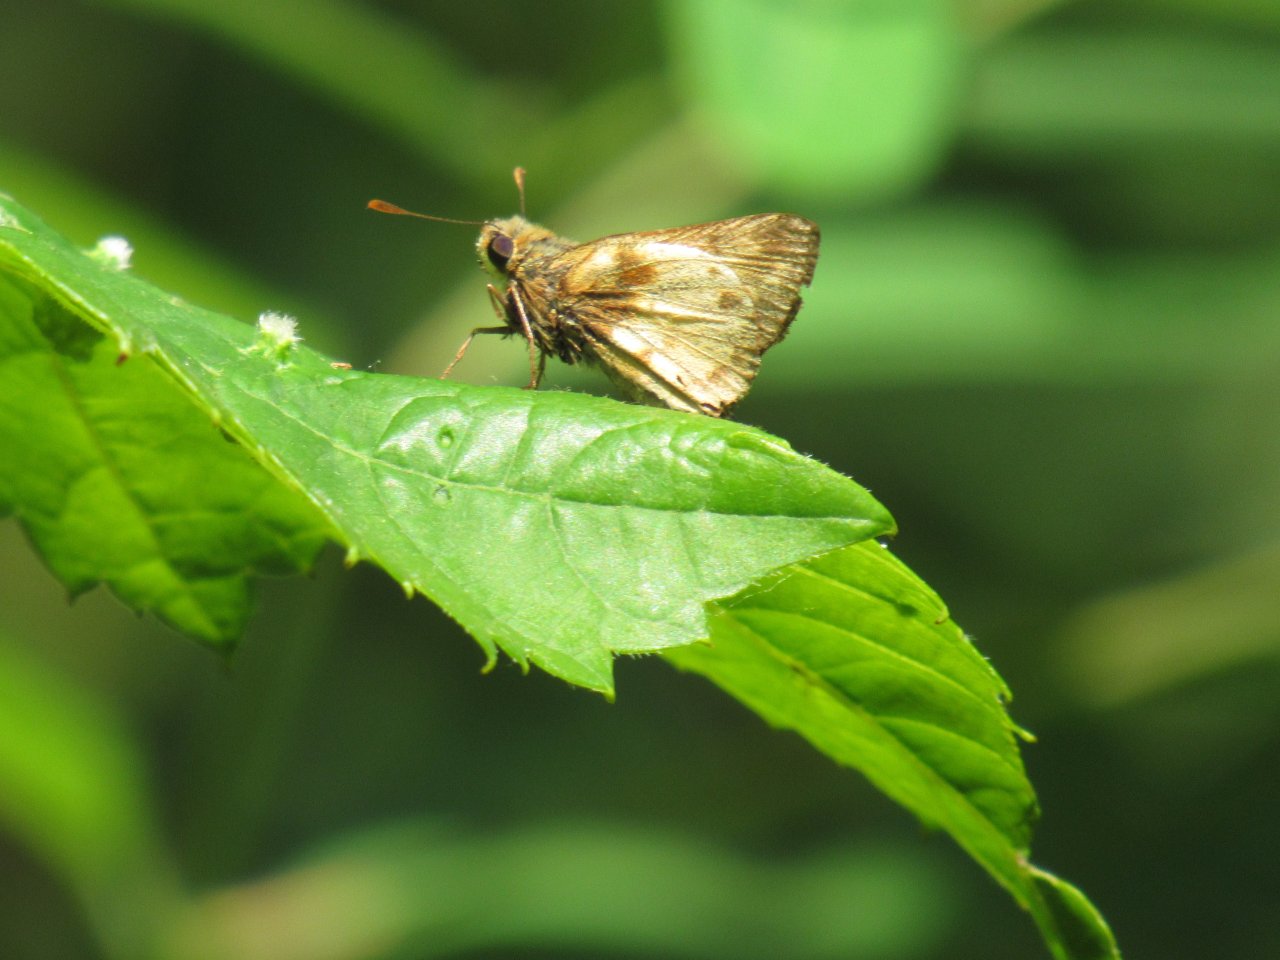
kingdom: Animalia
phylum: Arthropoda
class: Insecta
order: Lepidoptera
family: Hesperiidae
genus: Lon
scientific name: Lon zabulon
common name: Zabulon Skipper
